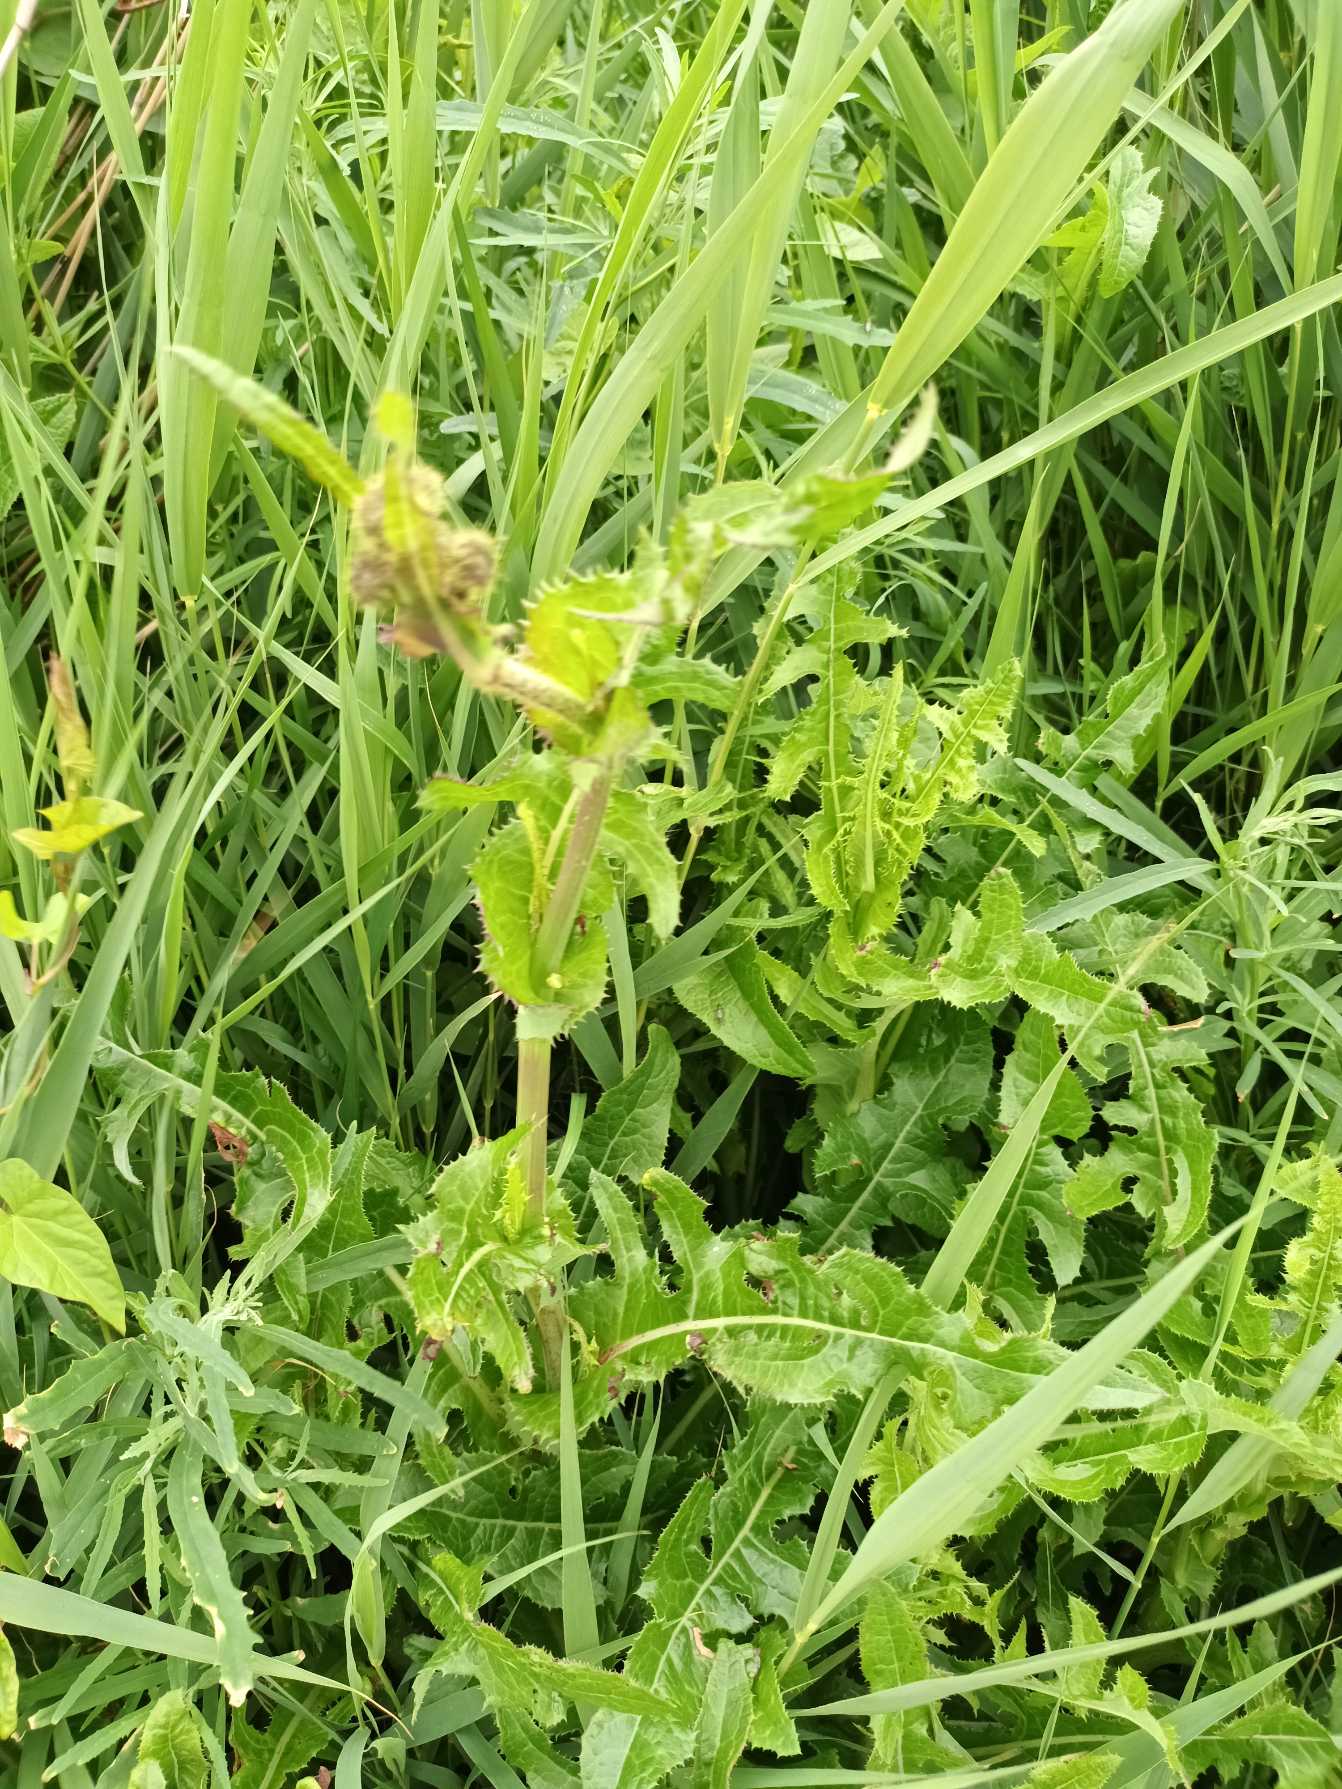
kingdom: Plantae
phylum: Tracheophyta
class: Magnoliopsida
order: Asterales
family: Asteraceae
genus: Sonchus
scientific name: Sonchus arvensis
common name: Ager-svinemælk
